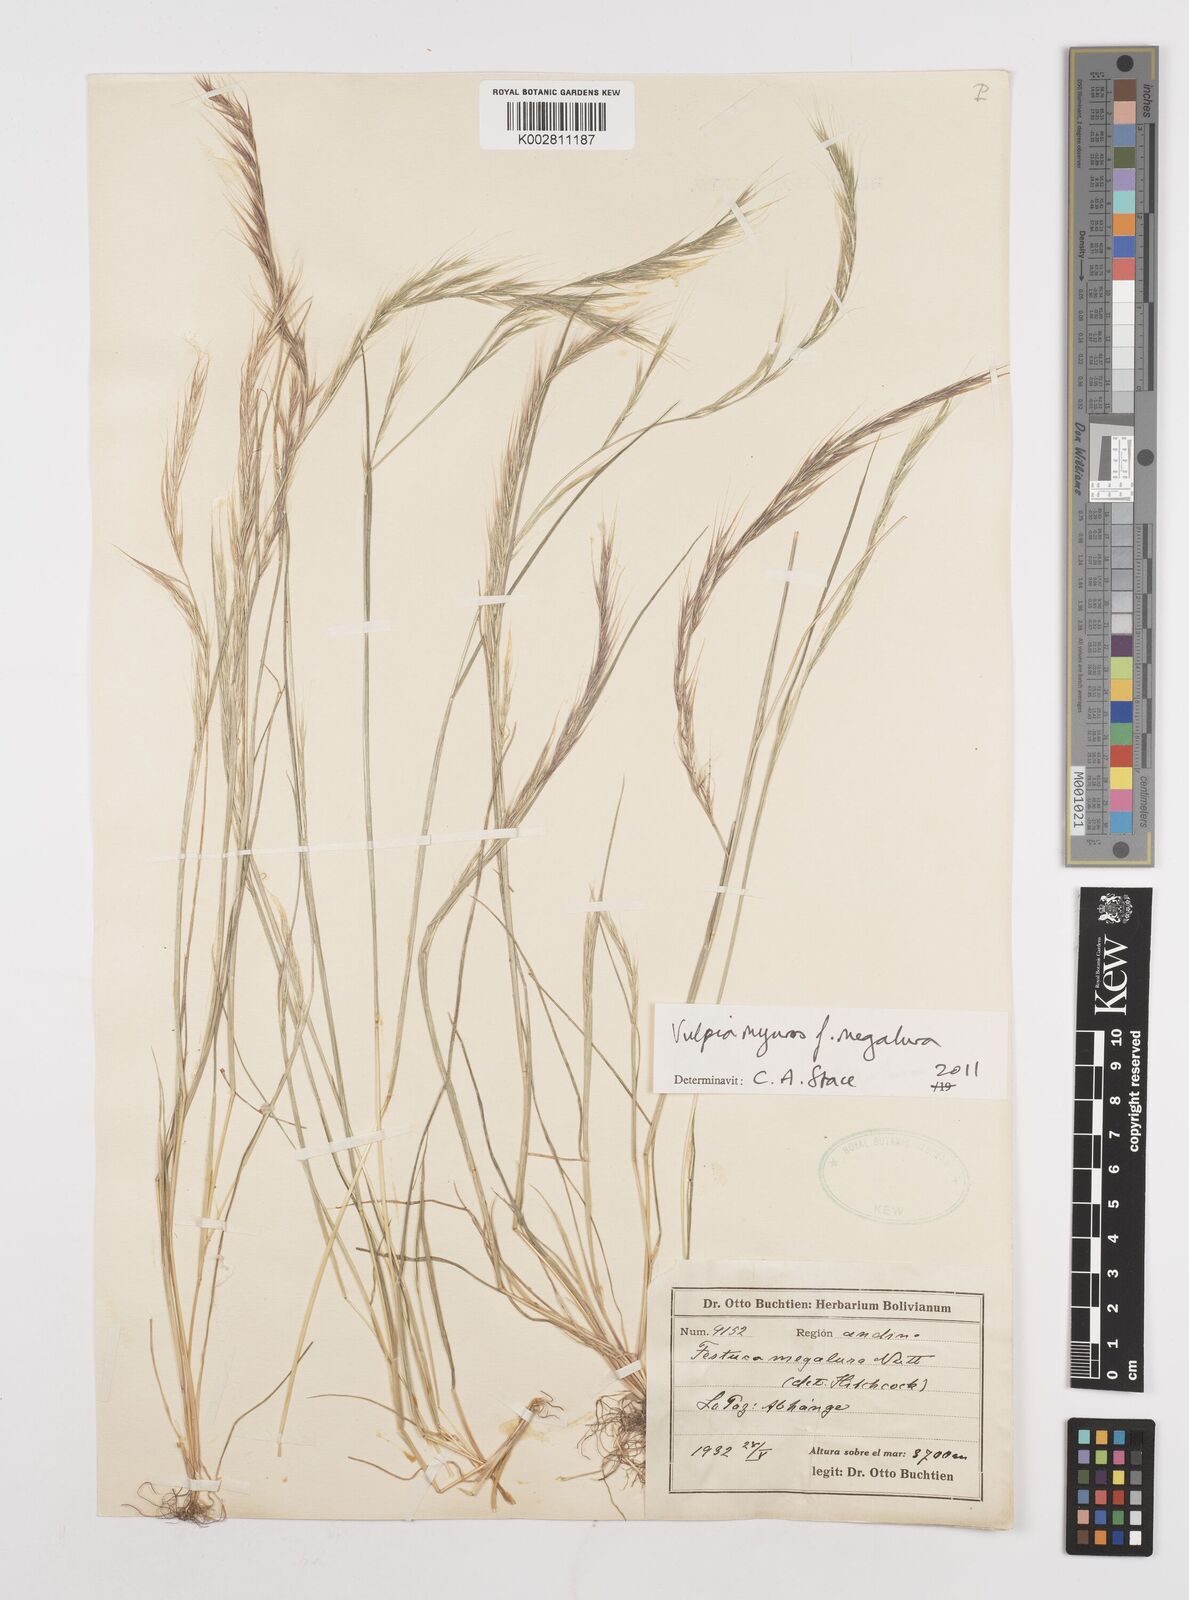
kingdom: Plantae
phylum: Tracheophyta
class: Liliopsida
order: Poales
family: Poaceae
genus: Festuca
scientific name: Festuca myuros
